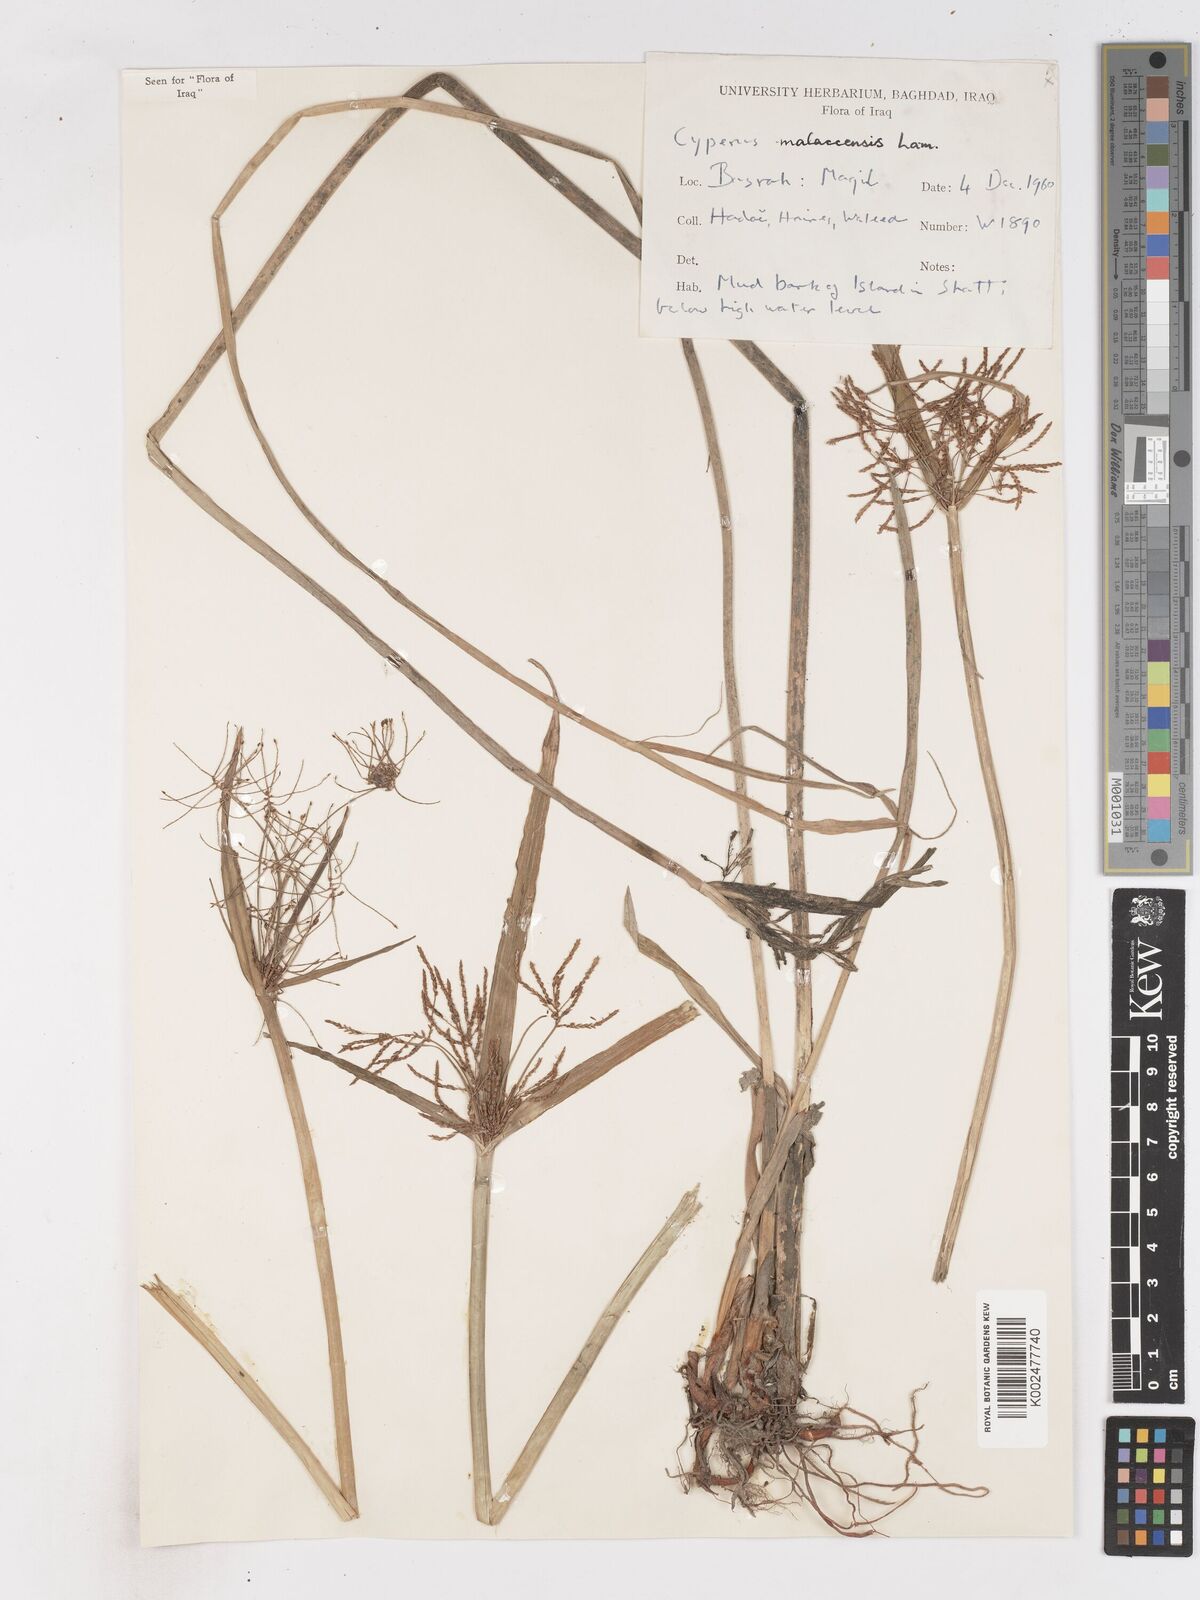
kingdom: Plantae
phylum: Tracheophyta
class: Liliopsida
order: Poales
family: Cyperaceae
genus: Cyperus
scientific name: Cyperus malaccensis
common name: Shichito matgrass
